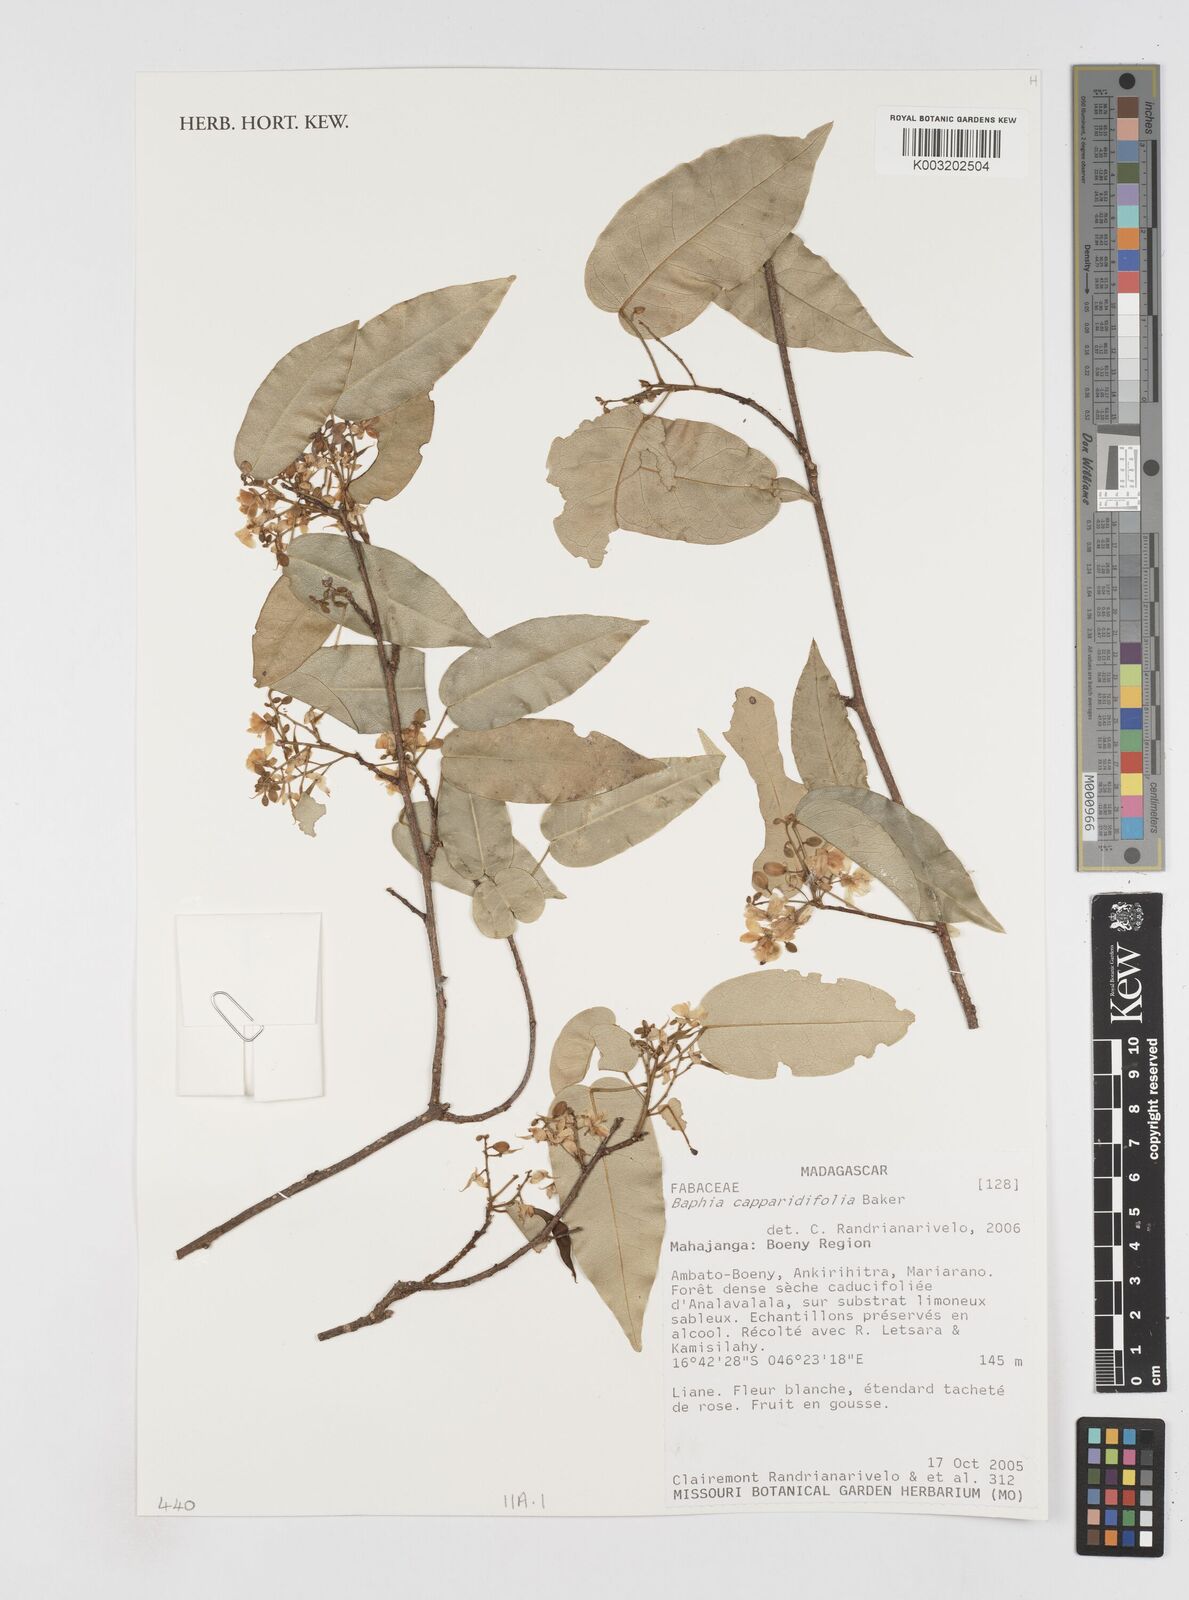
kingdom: Plantae
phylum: Tracheophyta
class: Magnoliopsida
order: Fabales
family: Fabaceae
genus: Baphia
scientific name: Baphia capparidifolia
